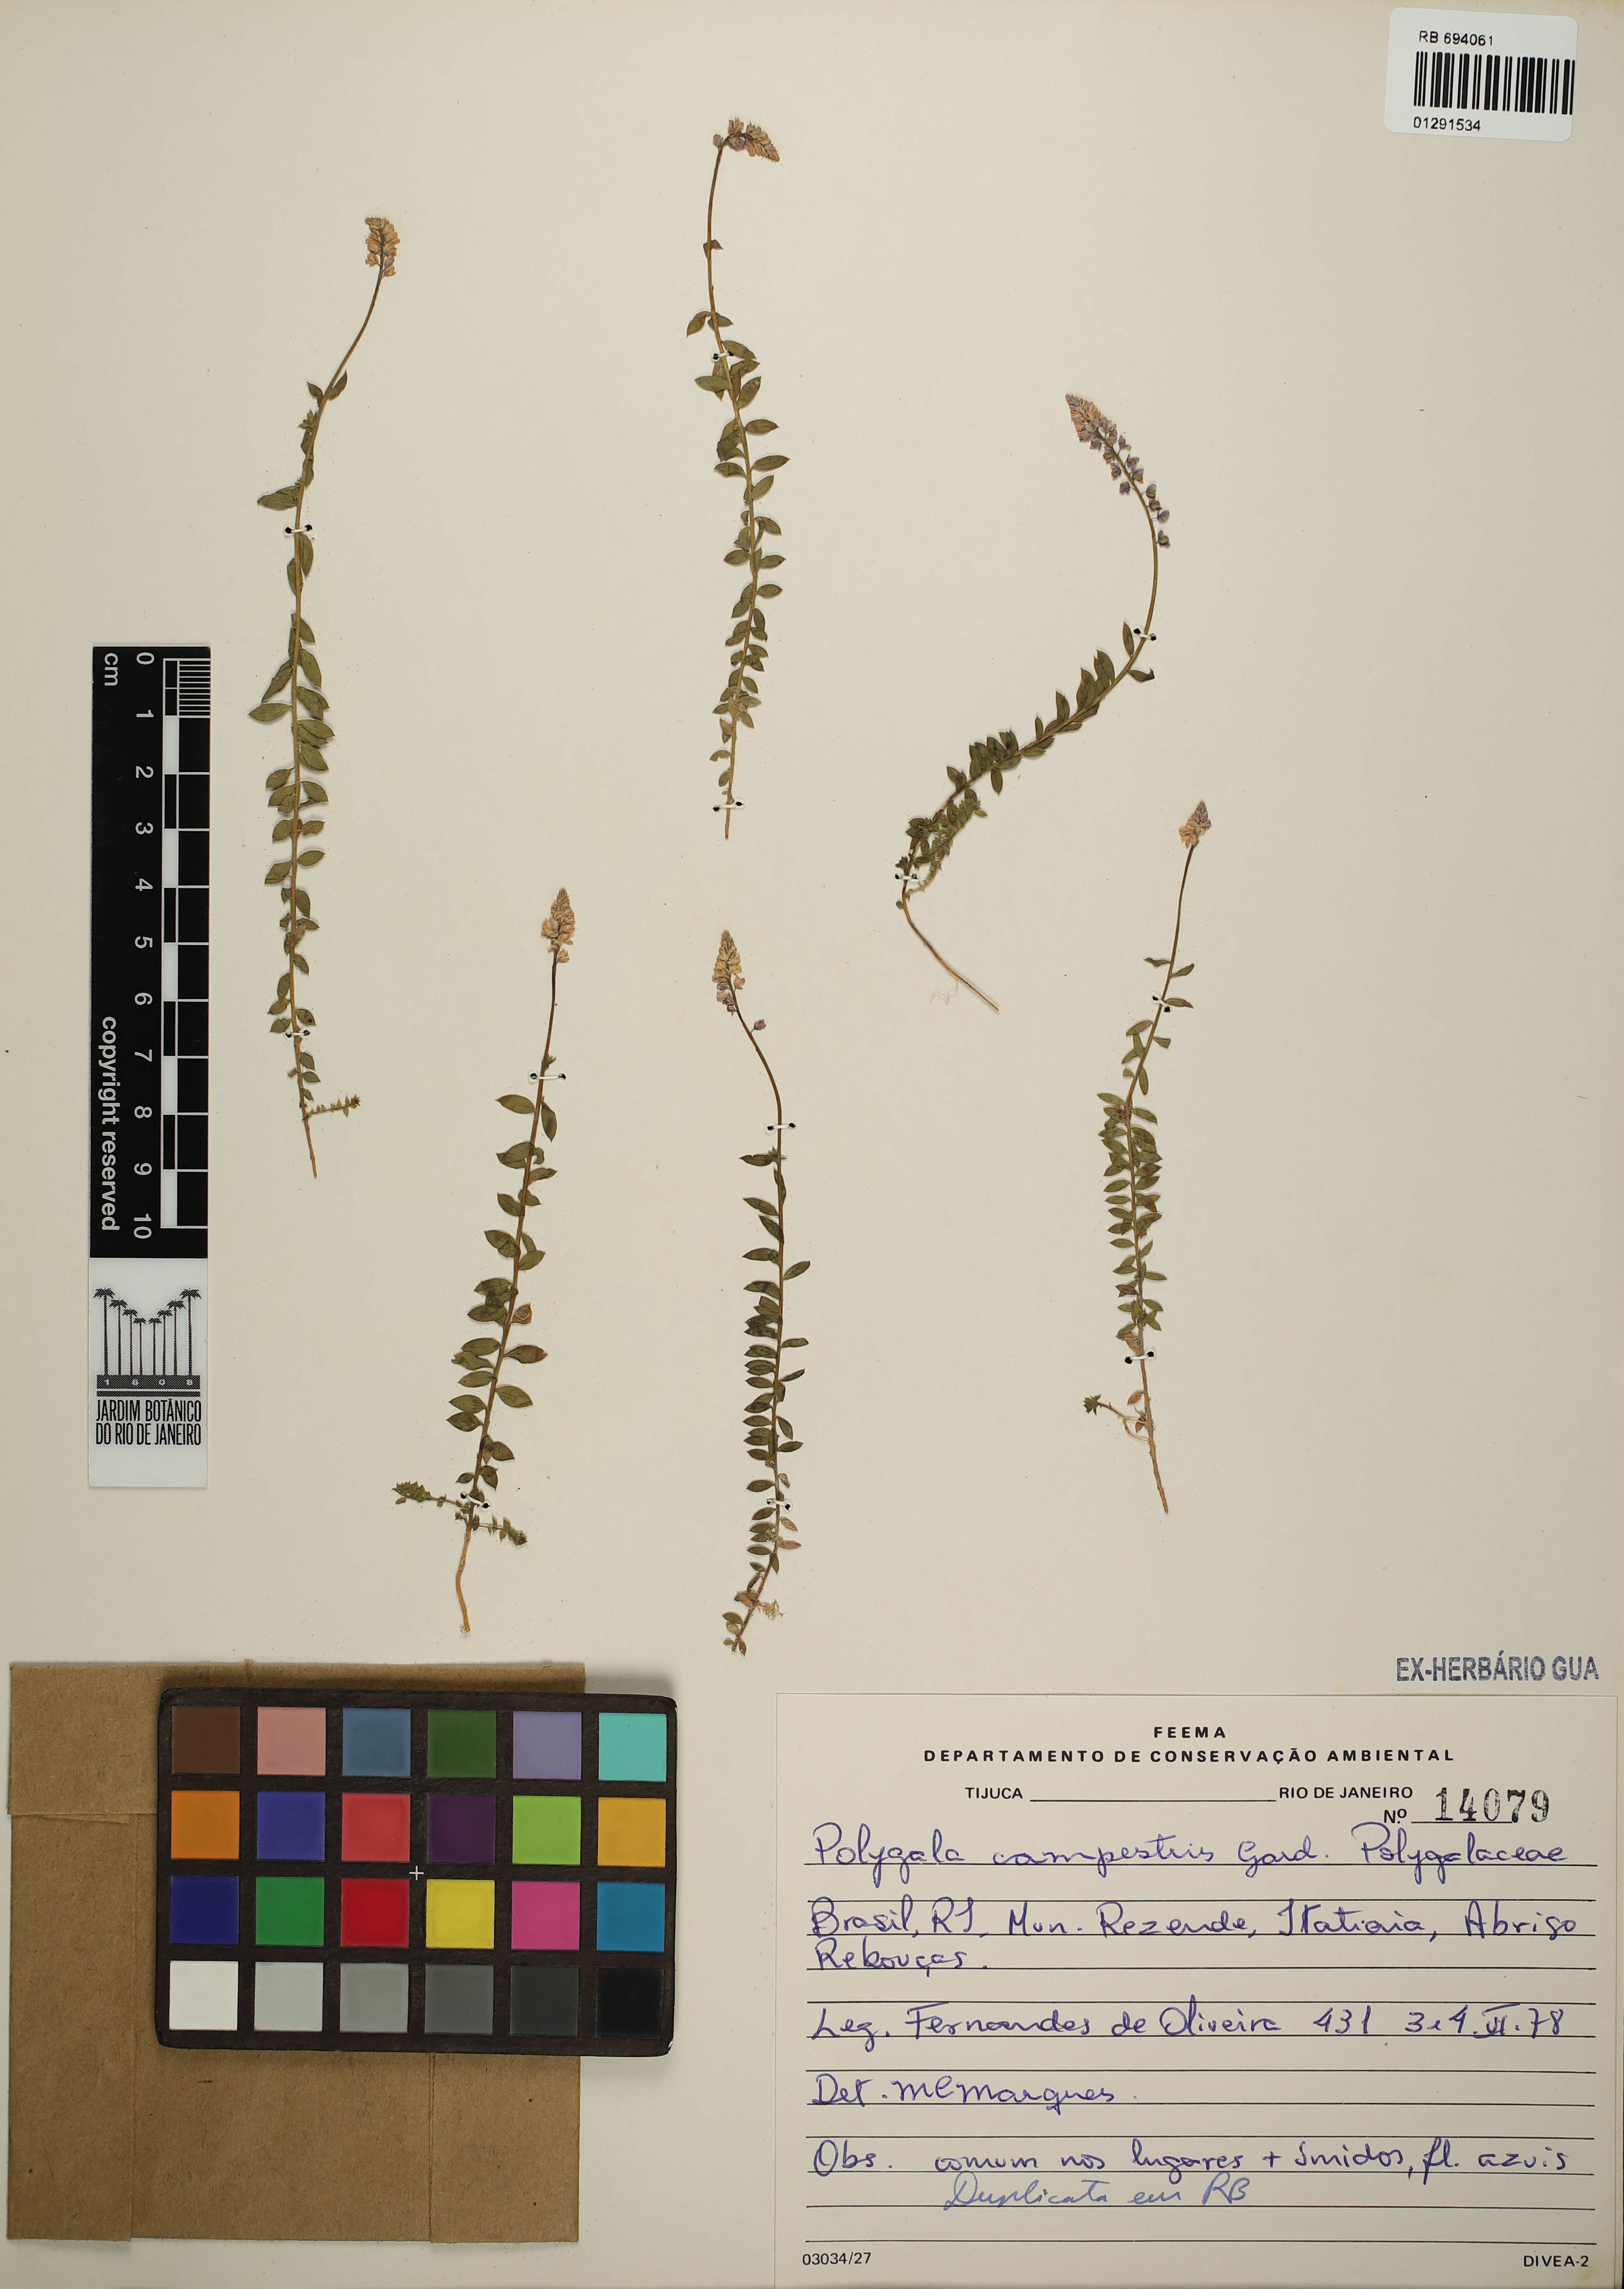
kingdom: Plantae
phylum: Tracheophyta
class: Magnoliopsida
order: Fabales
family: Polygalaceae
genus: Polygala
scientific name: Polygala campestris
